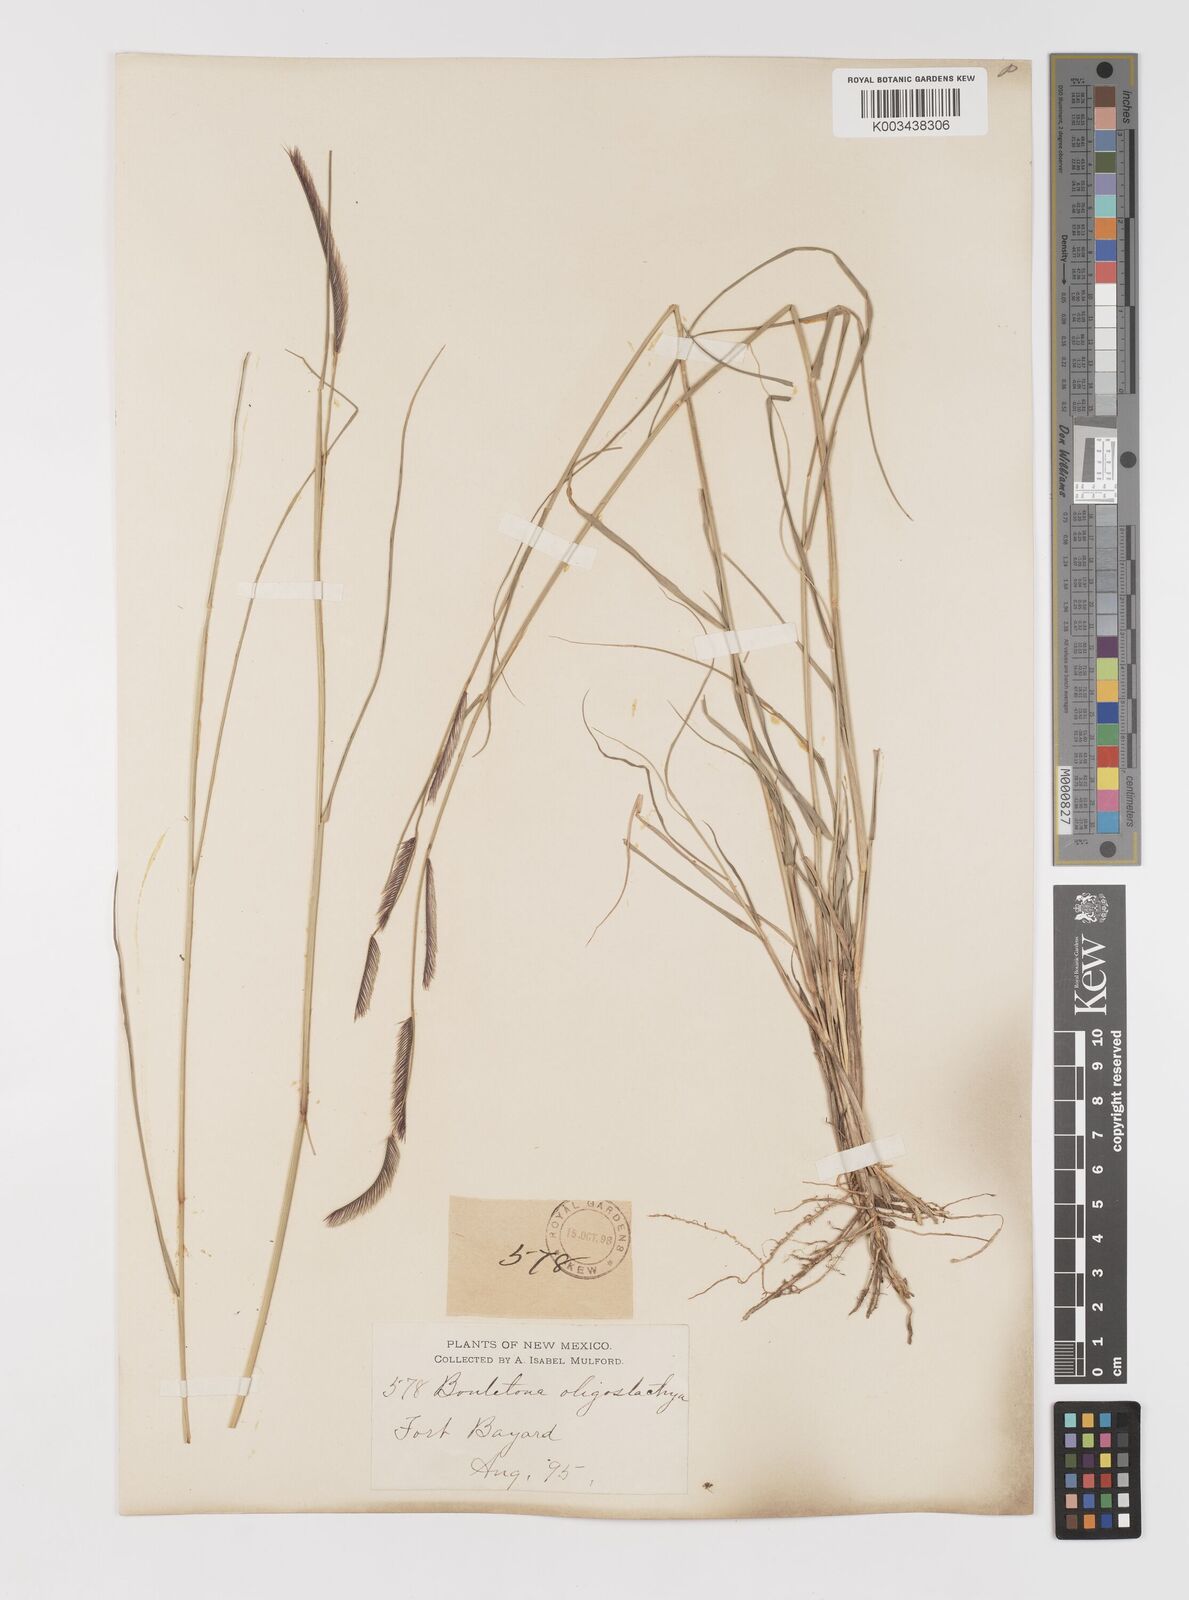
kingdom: Plantae
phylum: Tracheophyta
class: Liliopsida
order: Poales
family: Poaceae
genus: Bouteloua
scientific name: Bouteloua
